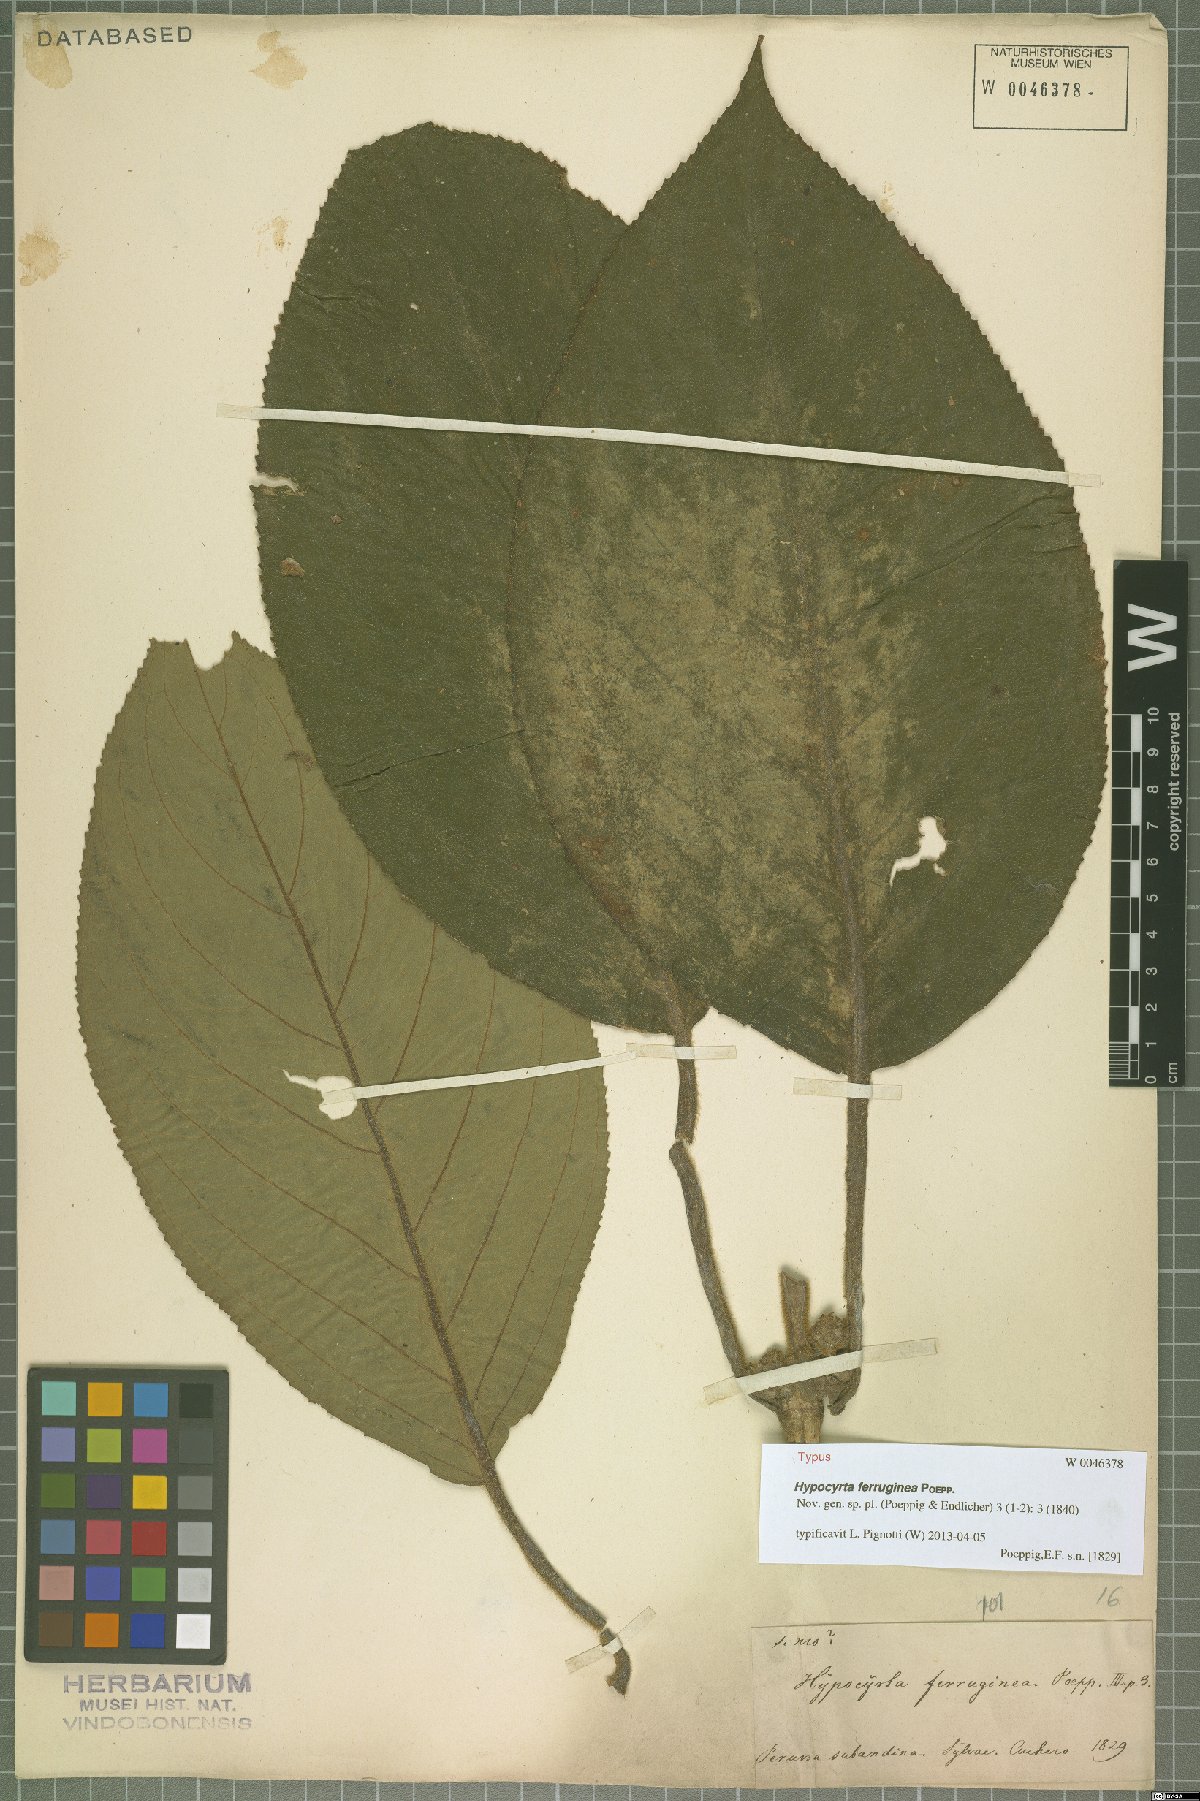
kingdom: Plantae
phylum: Tracheophyta
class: Magnoliopsida
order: Lamiales
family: Gesneriaceae
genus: Nematanthus
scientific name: Nematanthus Hypocyrta ferruginea
